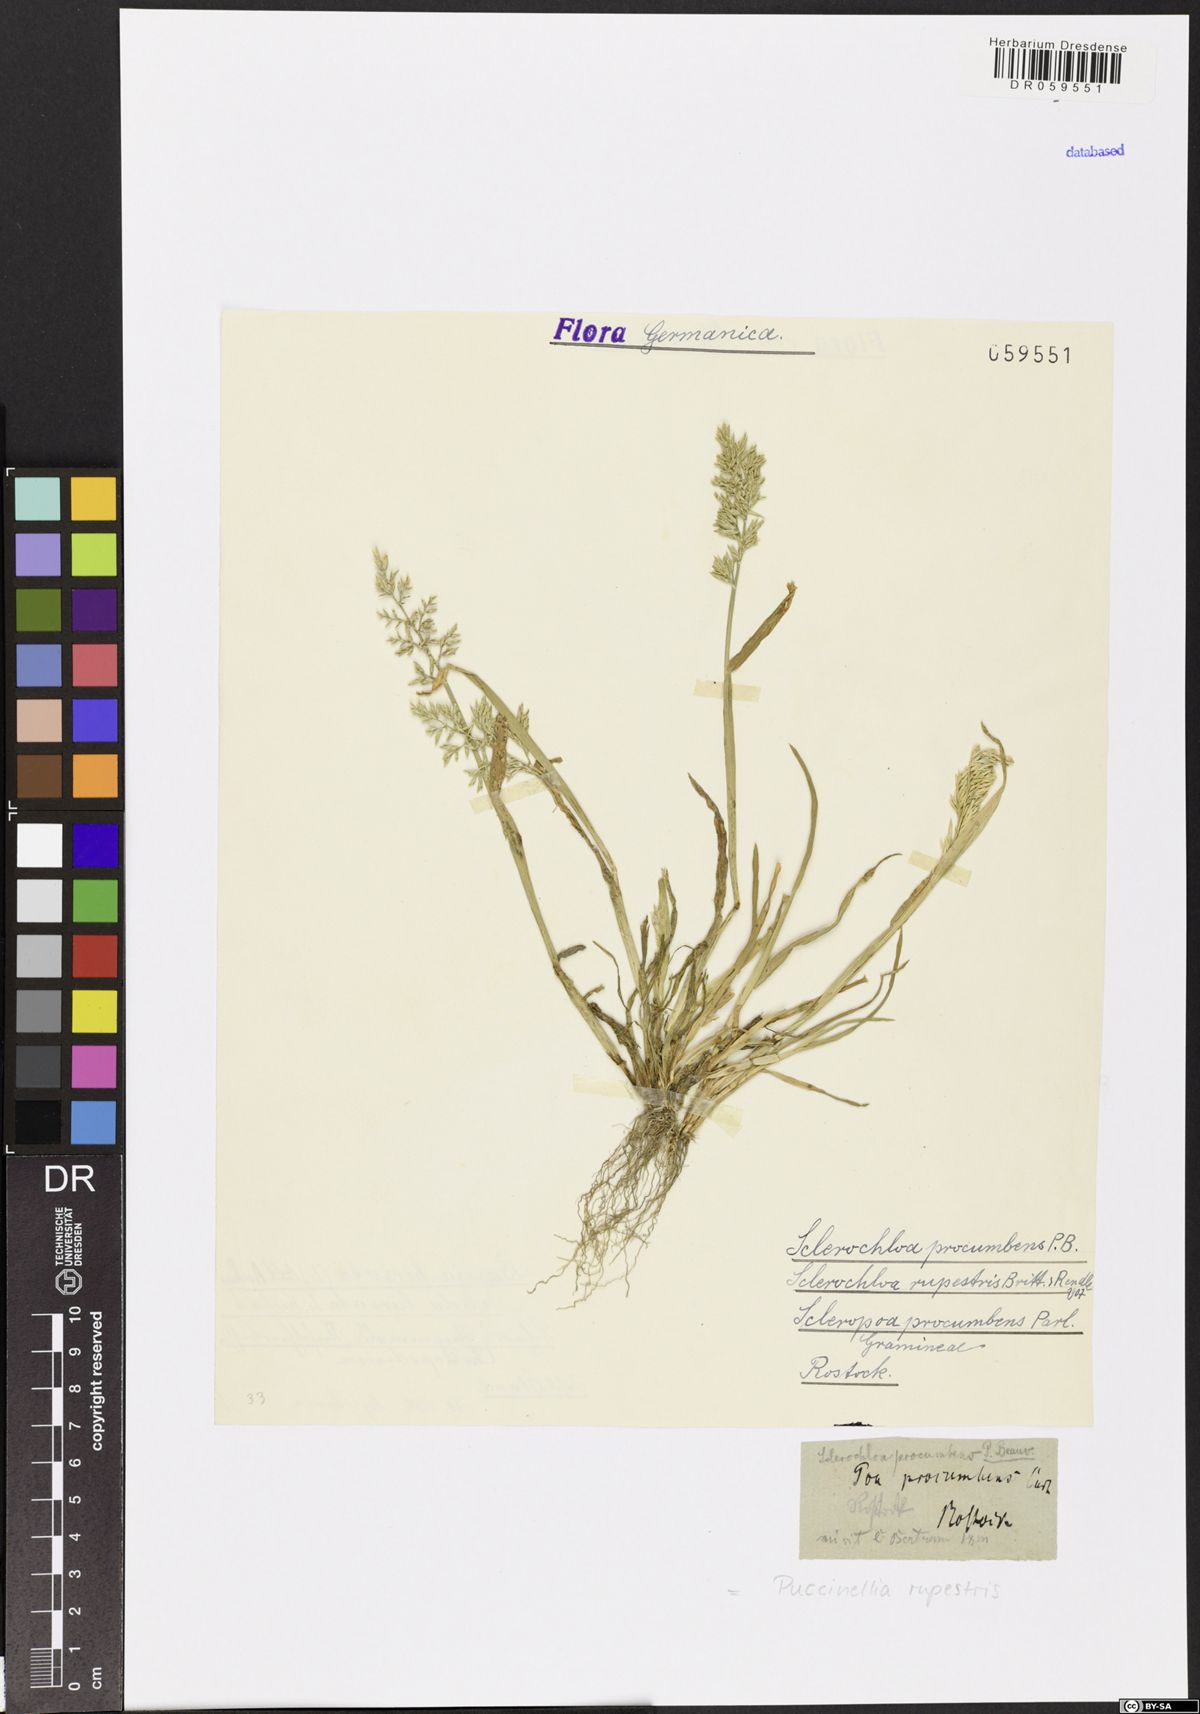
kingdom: Plantae
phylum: Tracheophyta
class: Liliopsida
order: Poales
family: Poaceae
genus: Puccinellia
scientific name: Puccinellia rupestris
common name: Stiff saltmarsh-grass
